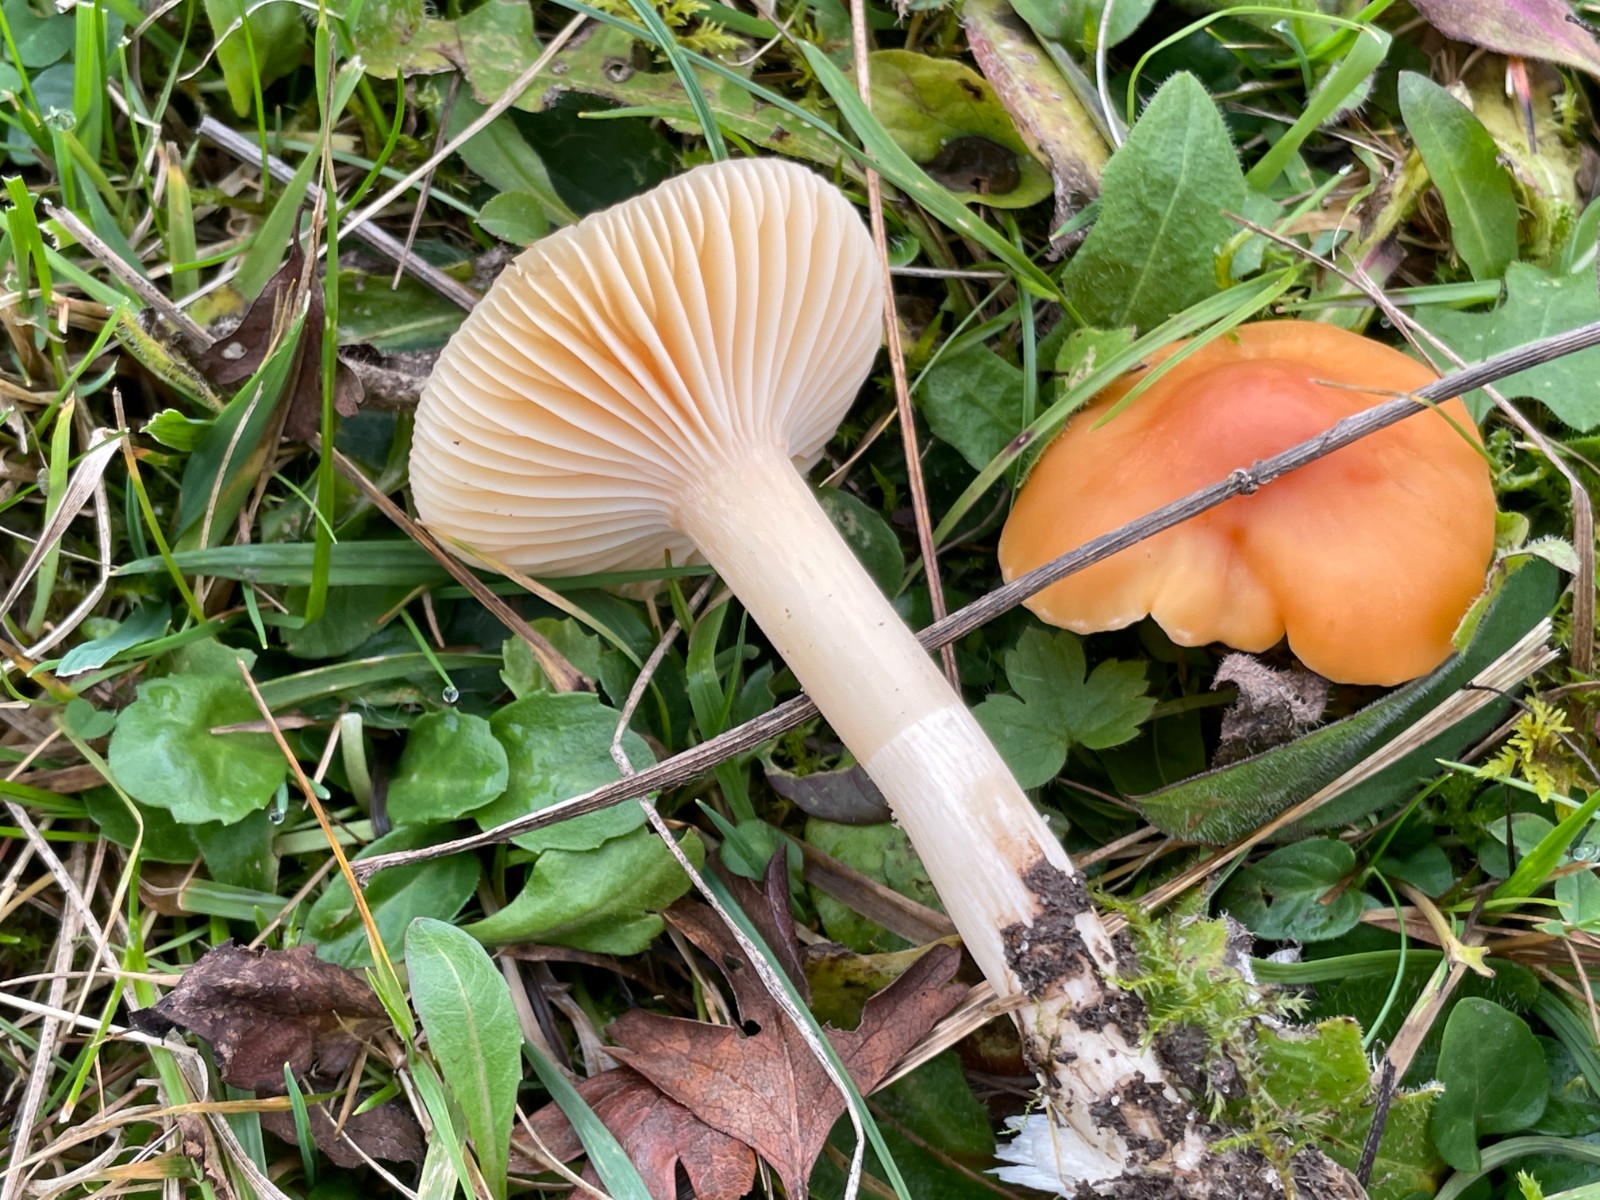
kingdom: Fungi
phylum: Basidiomycota
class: Agaricomycetes
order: Agaricales
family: Hygrophoraceae
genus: Cuphophyllus
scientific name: Cuphophyllus pratensis
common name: eng-vokshat
